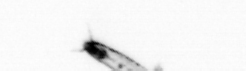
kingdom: Chromista
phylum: Myzozoa
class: Dinophyceae
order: Noctilucales
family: Noctilucaceae
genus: Noctiluca
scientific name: Noctiluca scintillans
